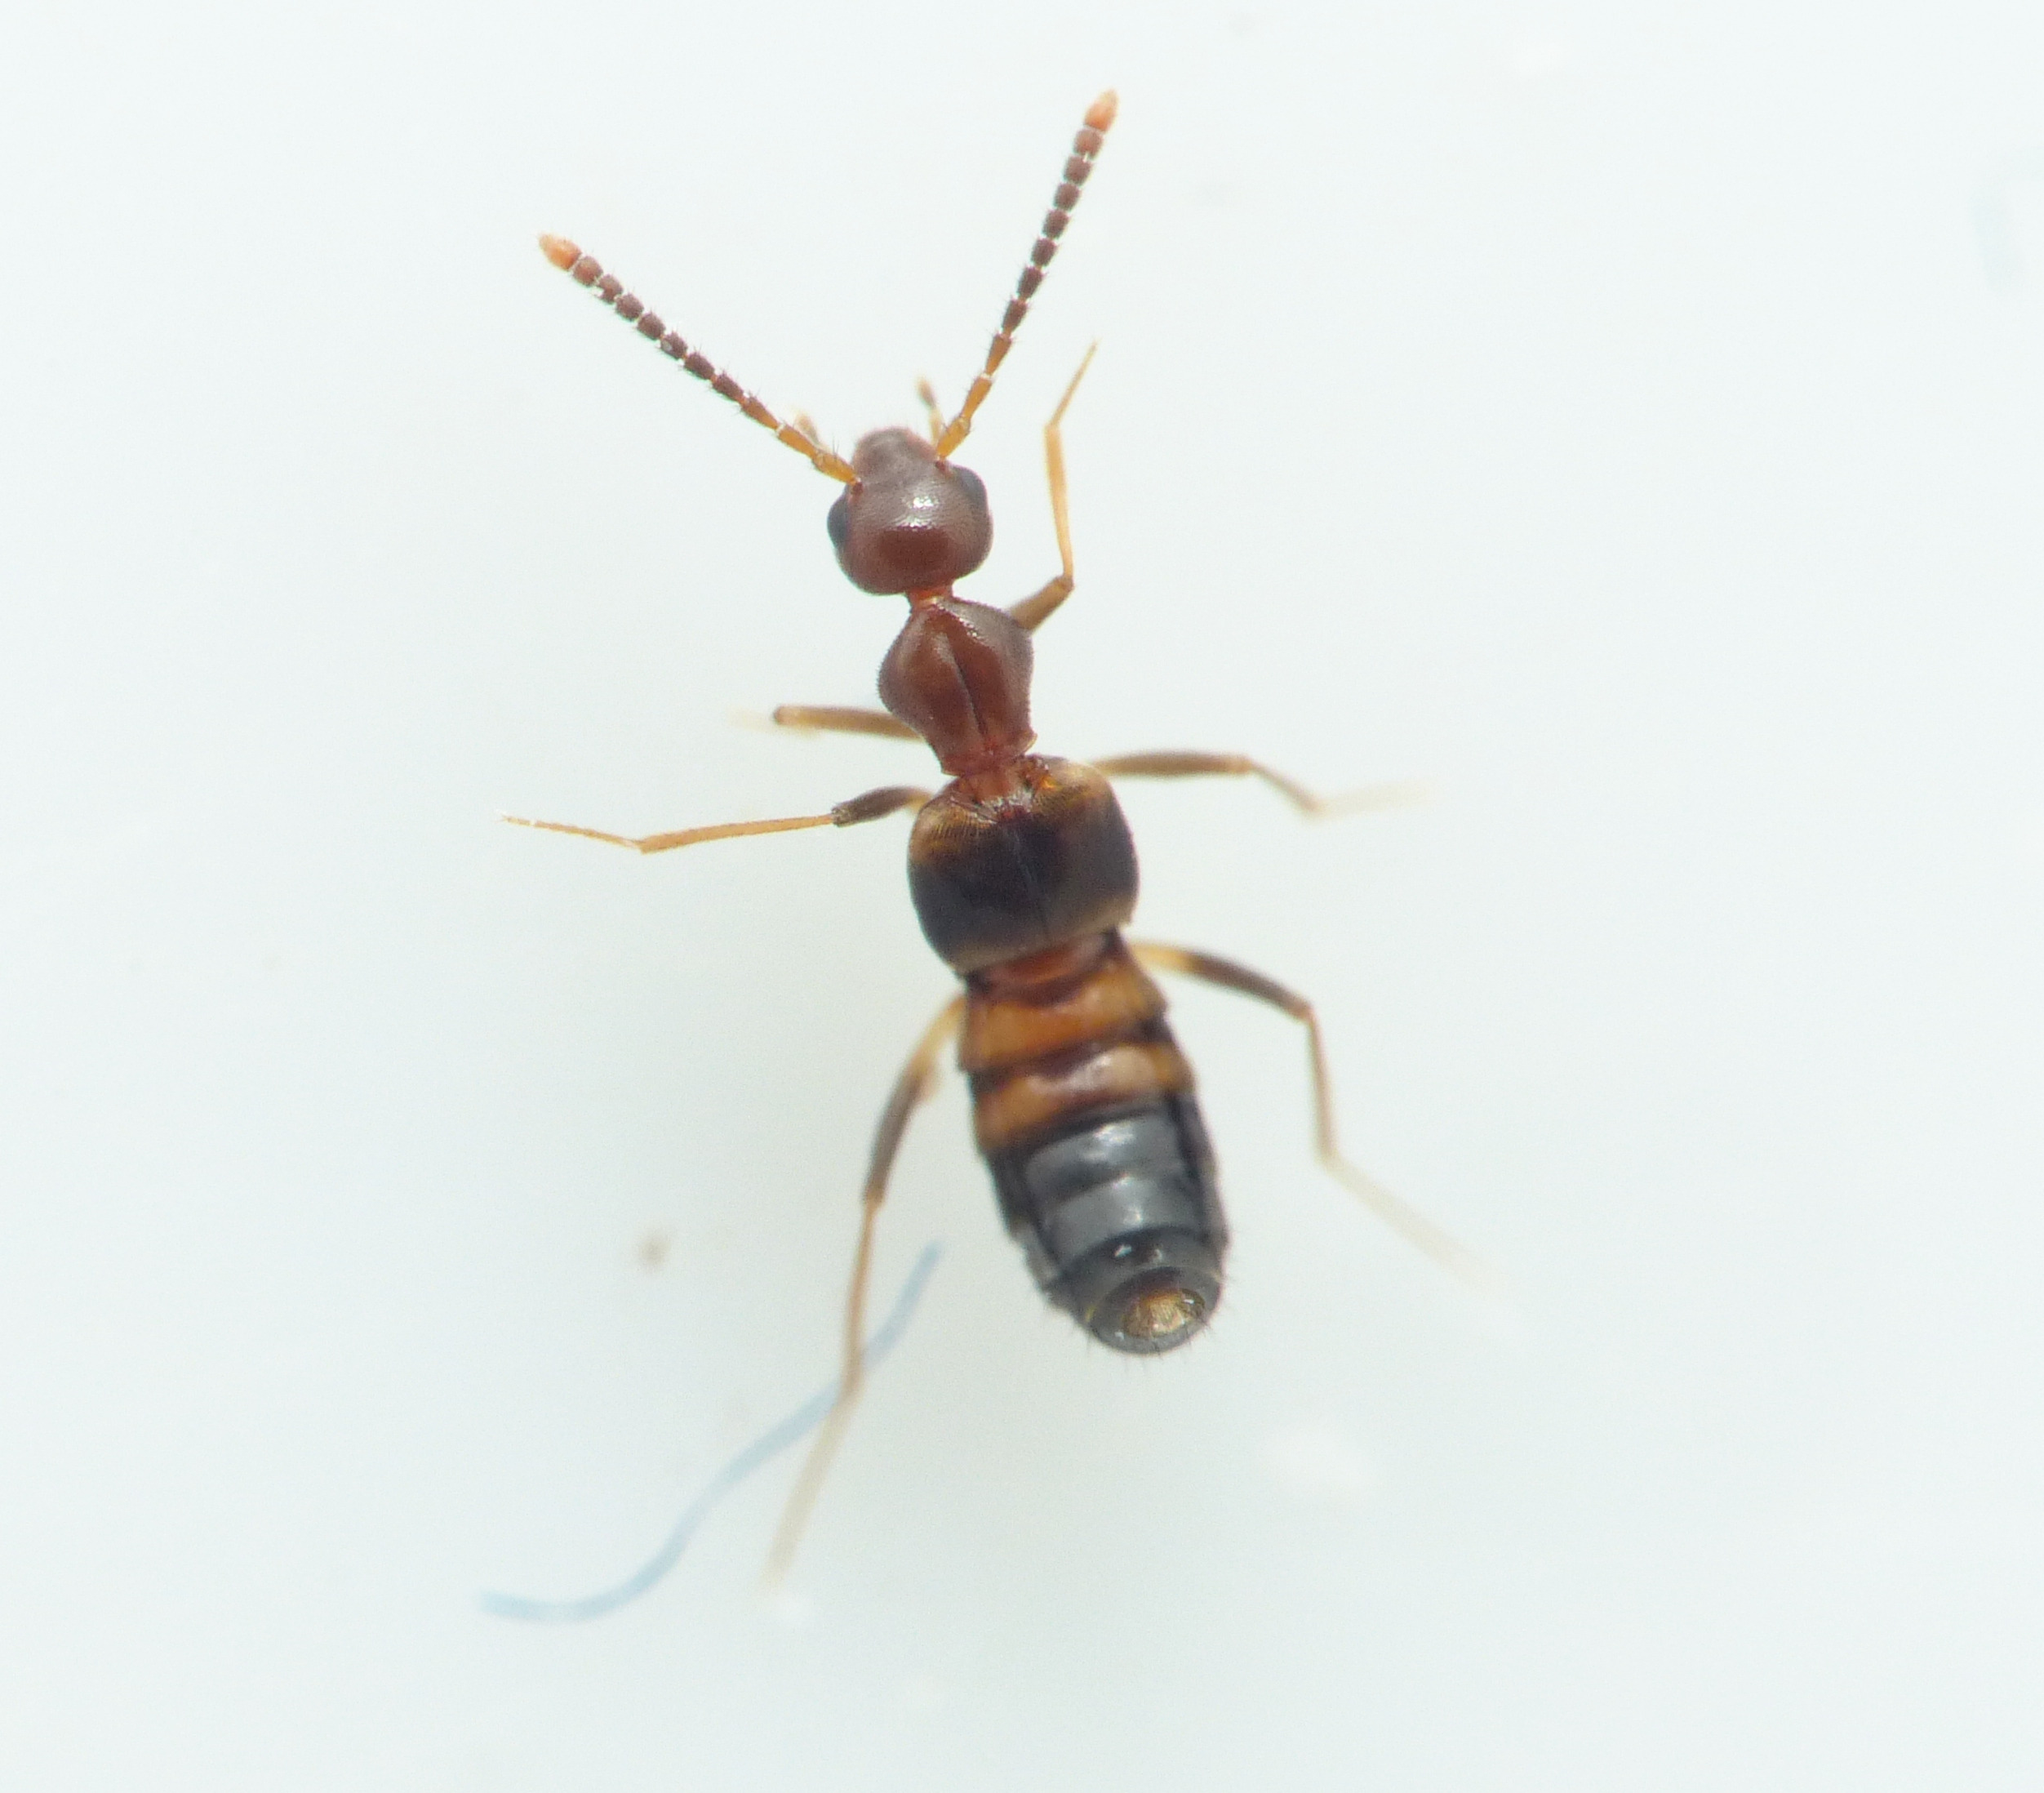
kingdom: Animalia
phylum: Arthropoda
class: Insecta
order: Coleoptera
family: Staphylinidae
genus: Myrmecocephalus
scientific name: Myrmecocephalus concinnus
